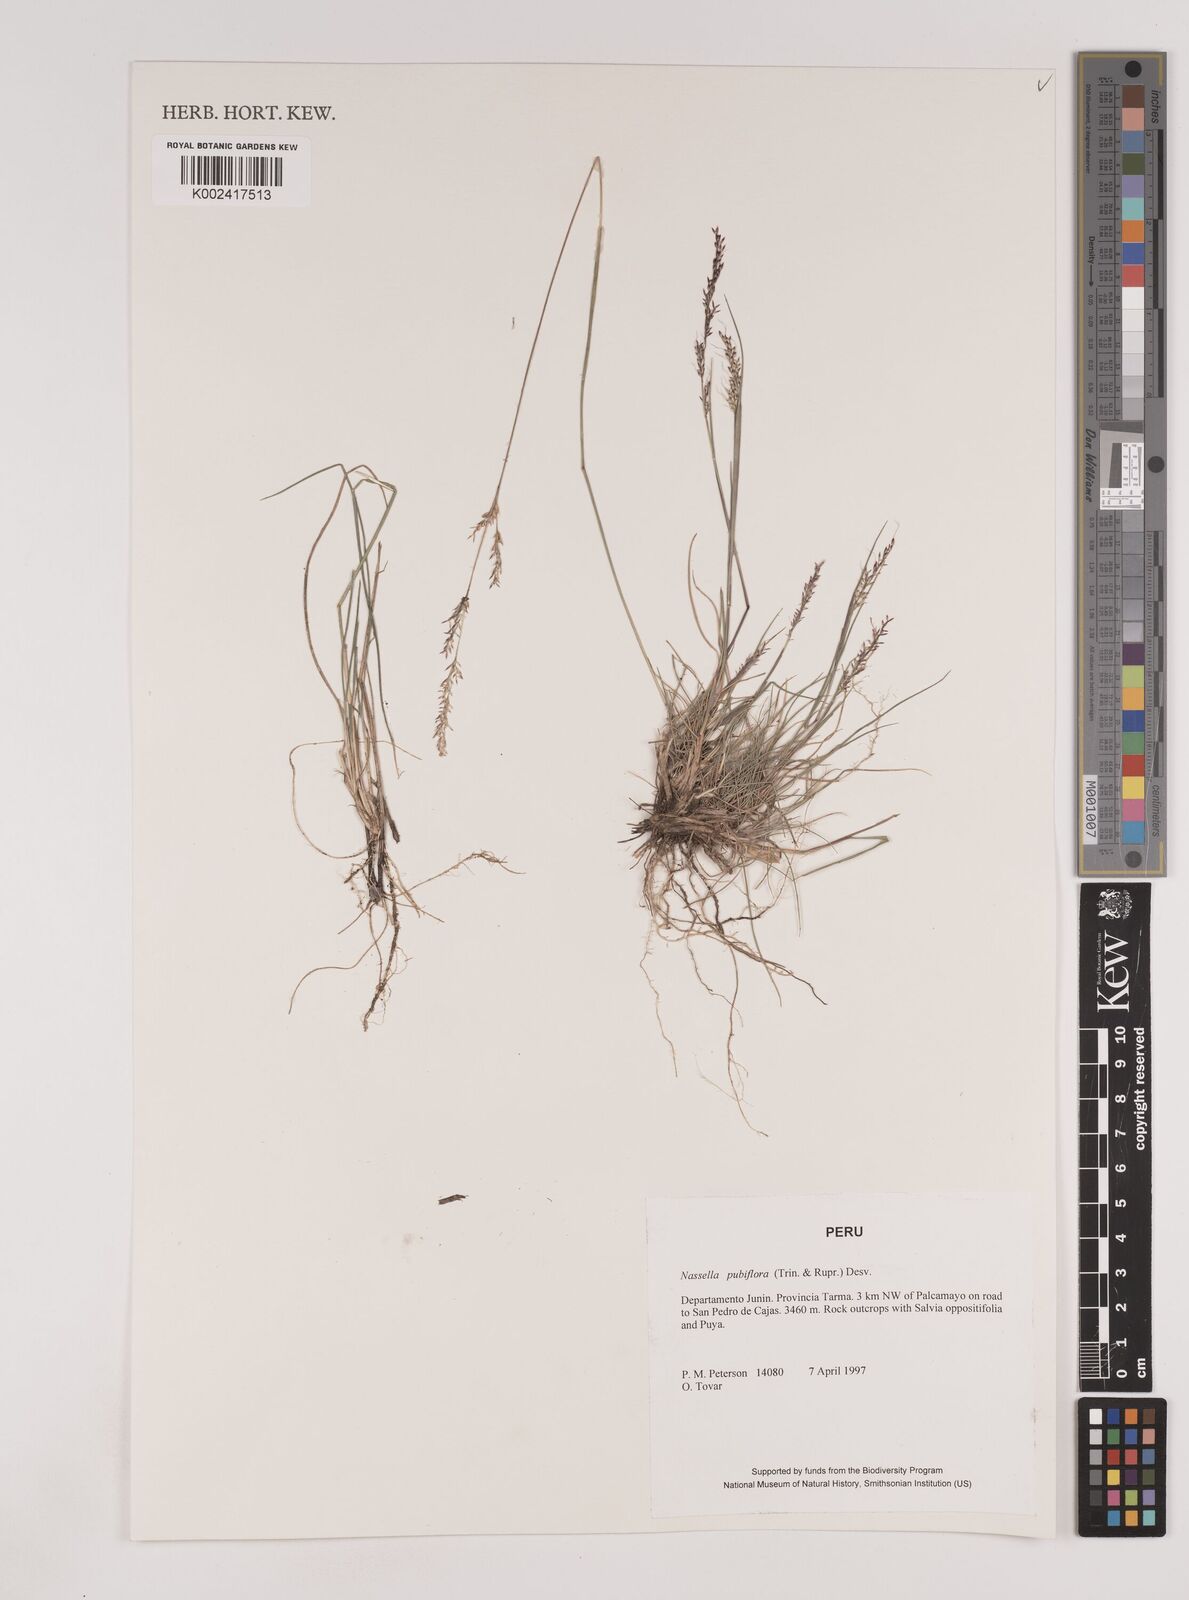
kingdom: Plantae
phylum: Tracheophyta
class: Liliopsida
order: Poales
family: Poaceae
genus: Nassella
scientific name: Nassella pubiflora
